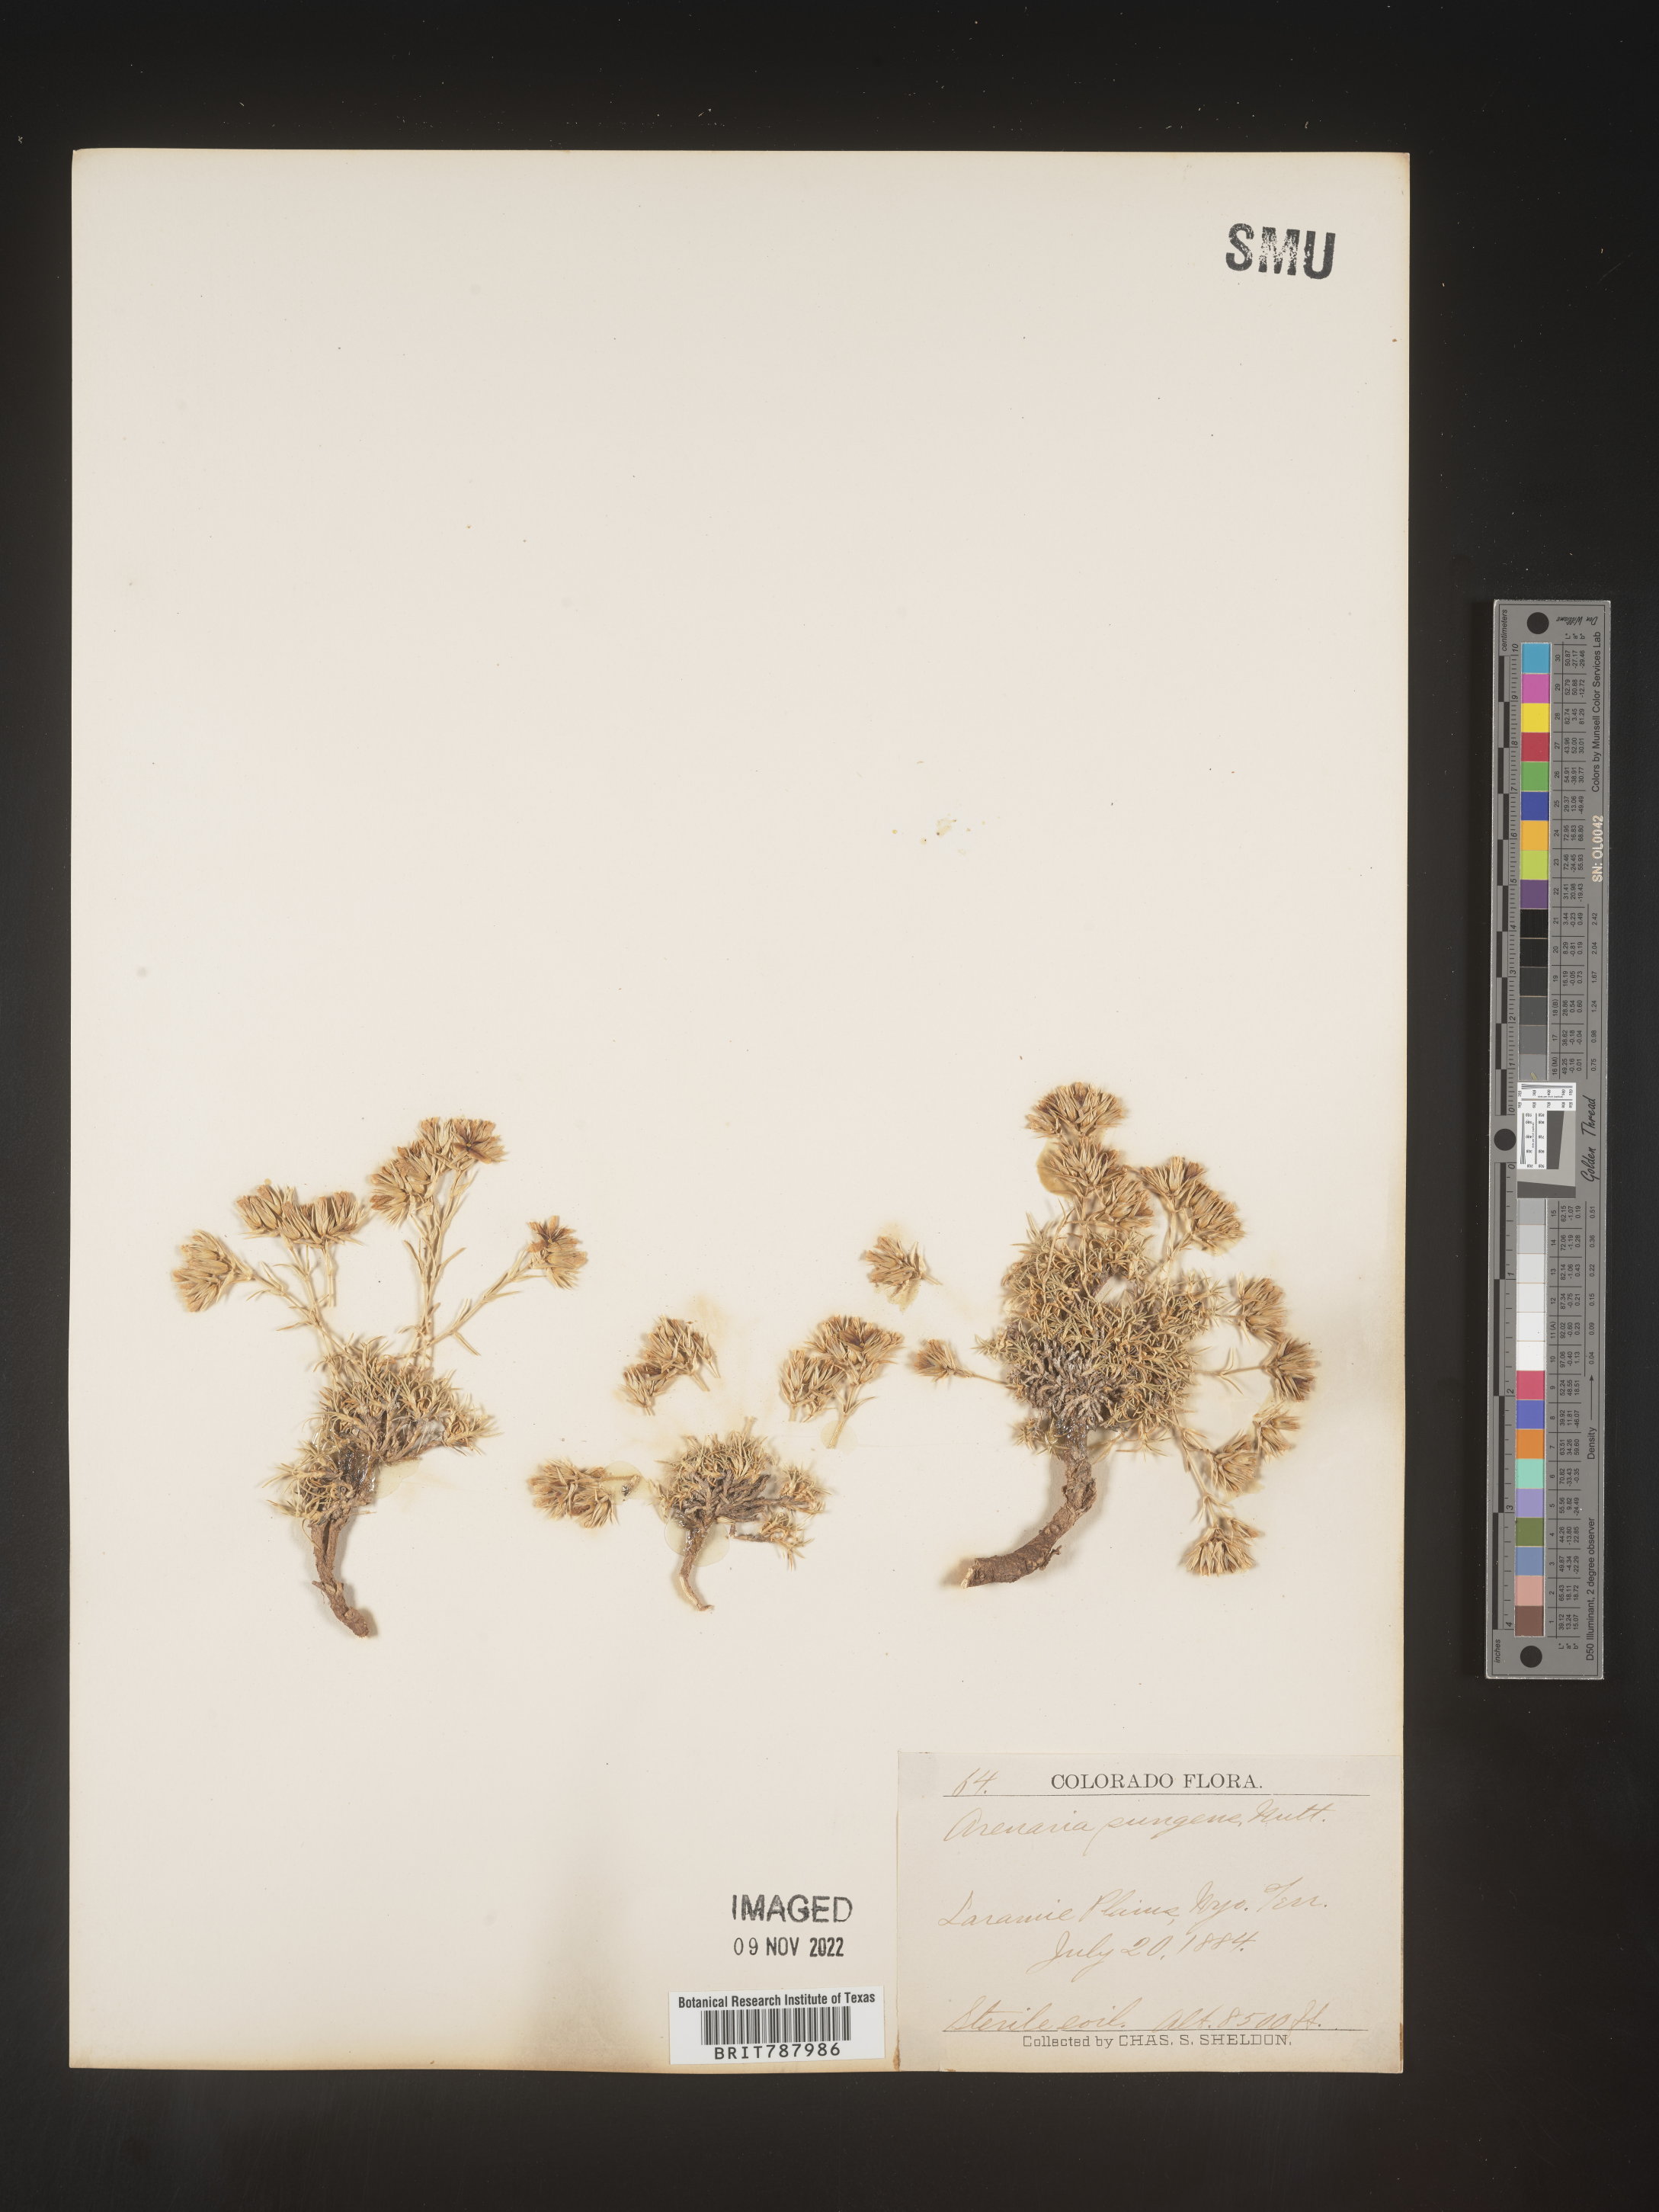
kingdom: Plantae
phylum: Tracheophyta
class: Magnoliopsida
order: Caryophyllales
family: Caryophyllaceae
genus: Arenaria
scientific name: Arenaria
